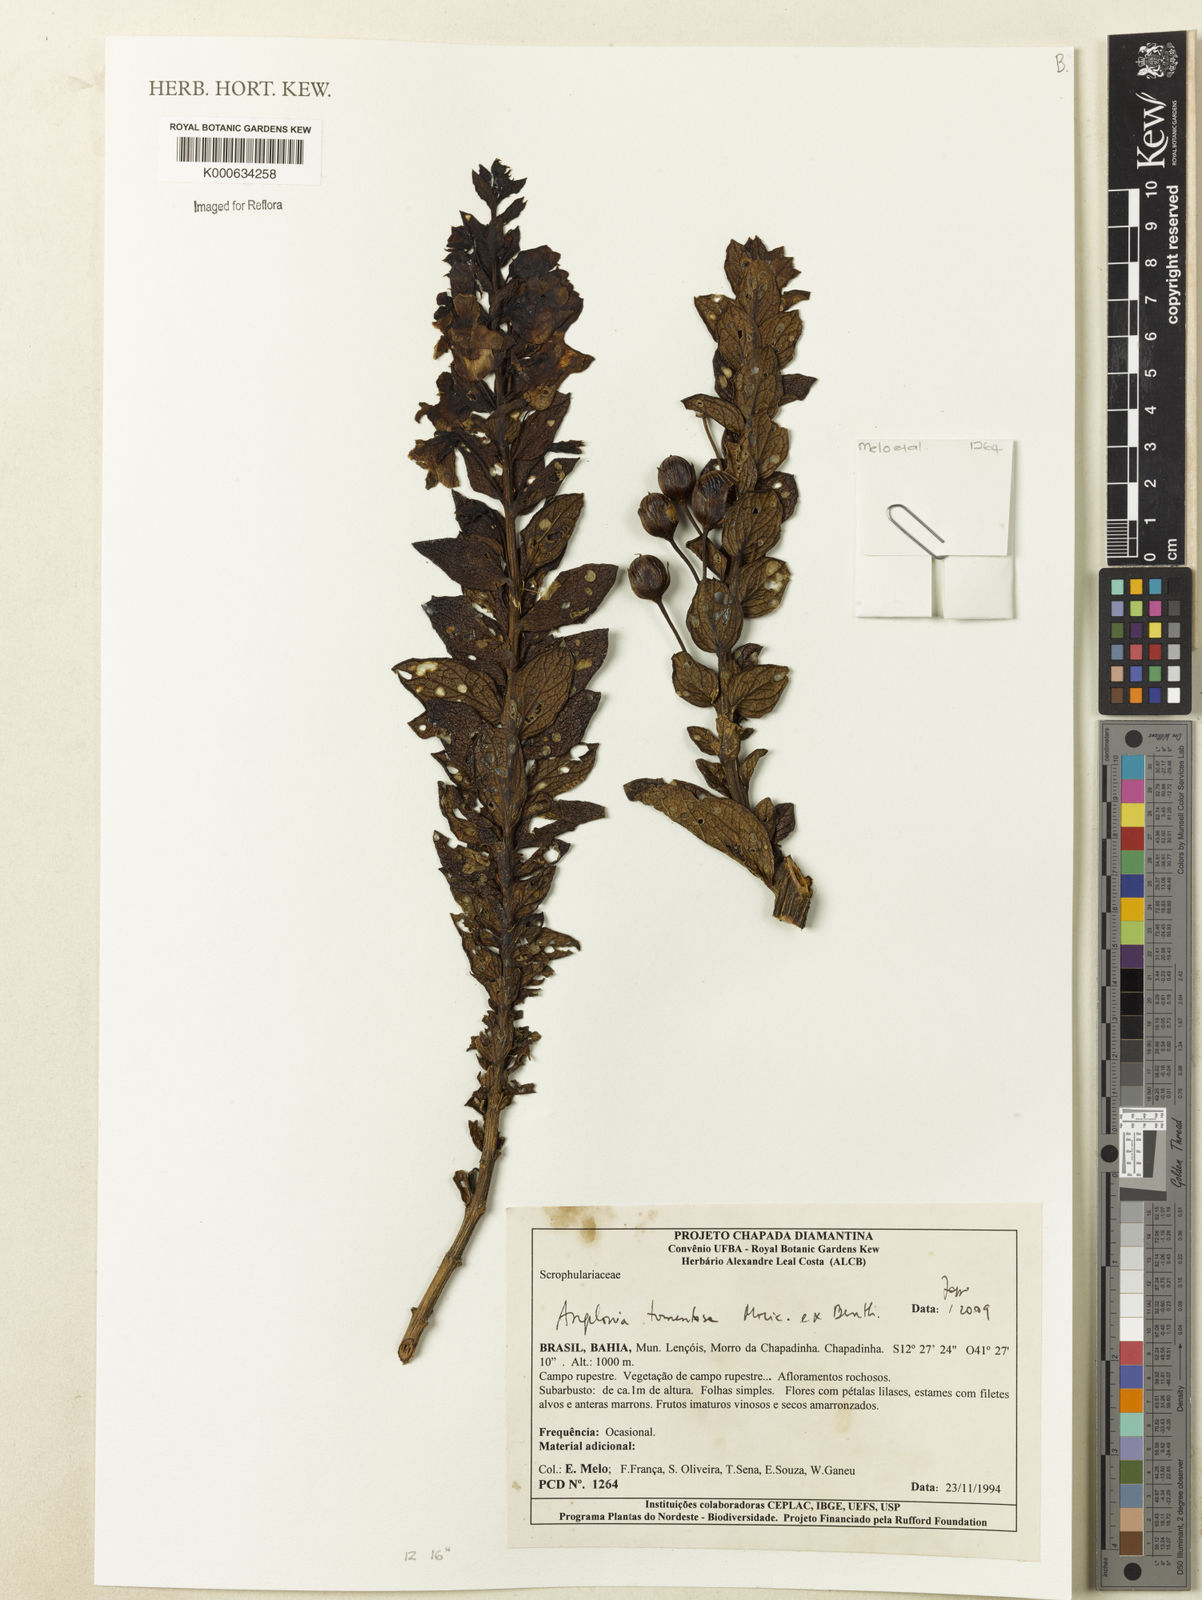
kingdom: Plantae
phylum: Tracheophyta
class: Magnoliopsida
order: Lamiales
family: Plantaginaceae
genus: Angelonia
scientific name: Angelonia tomentosa
